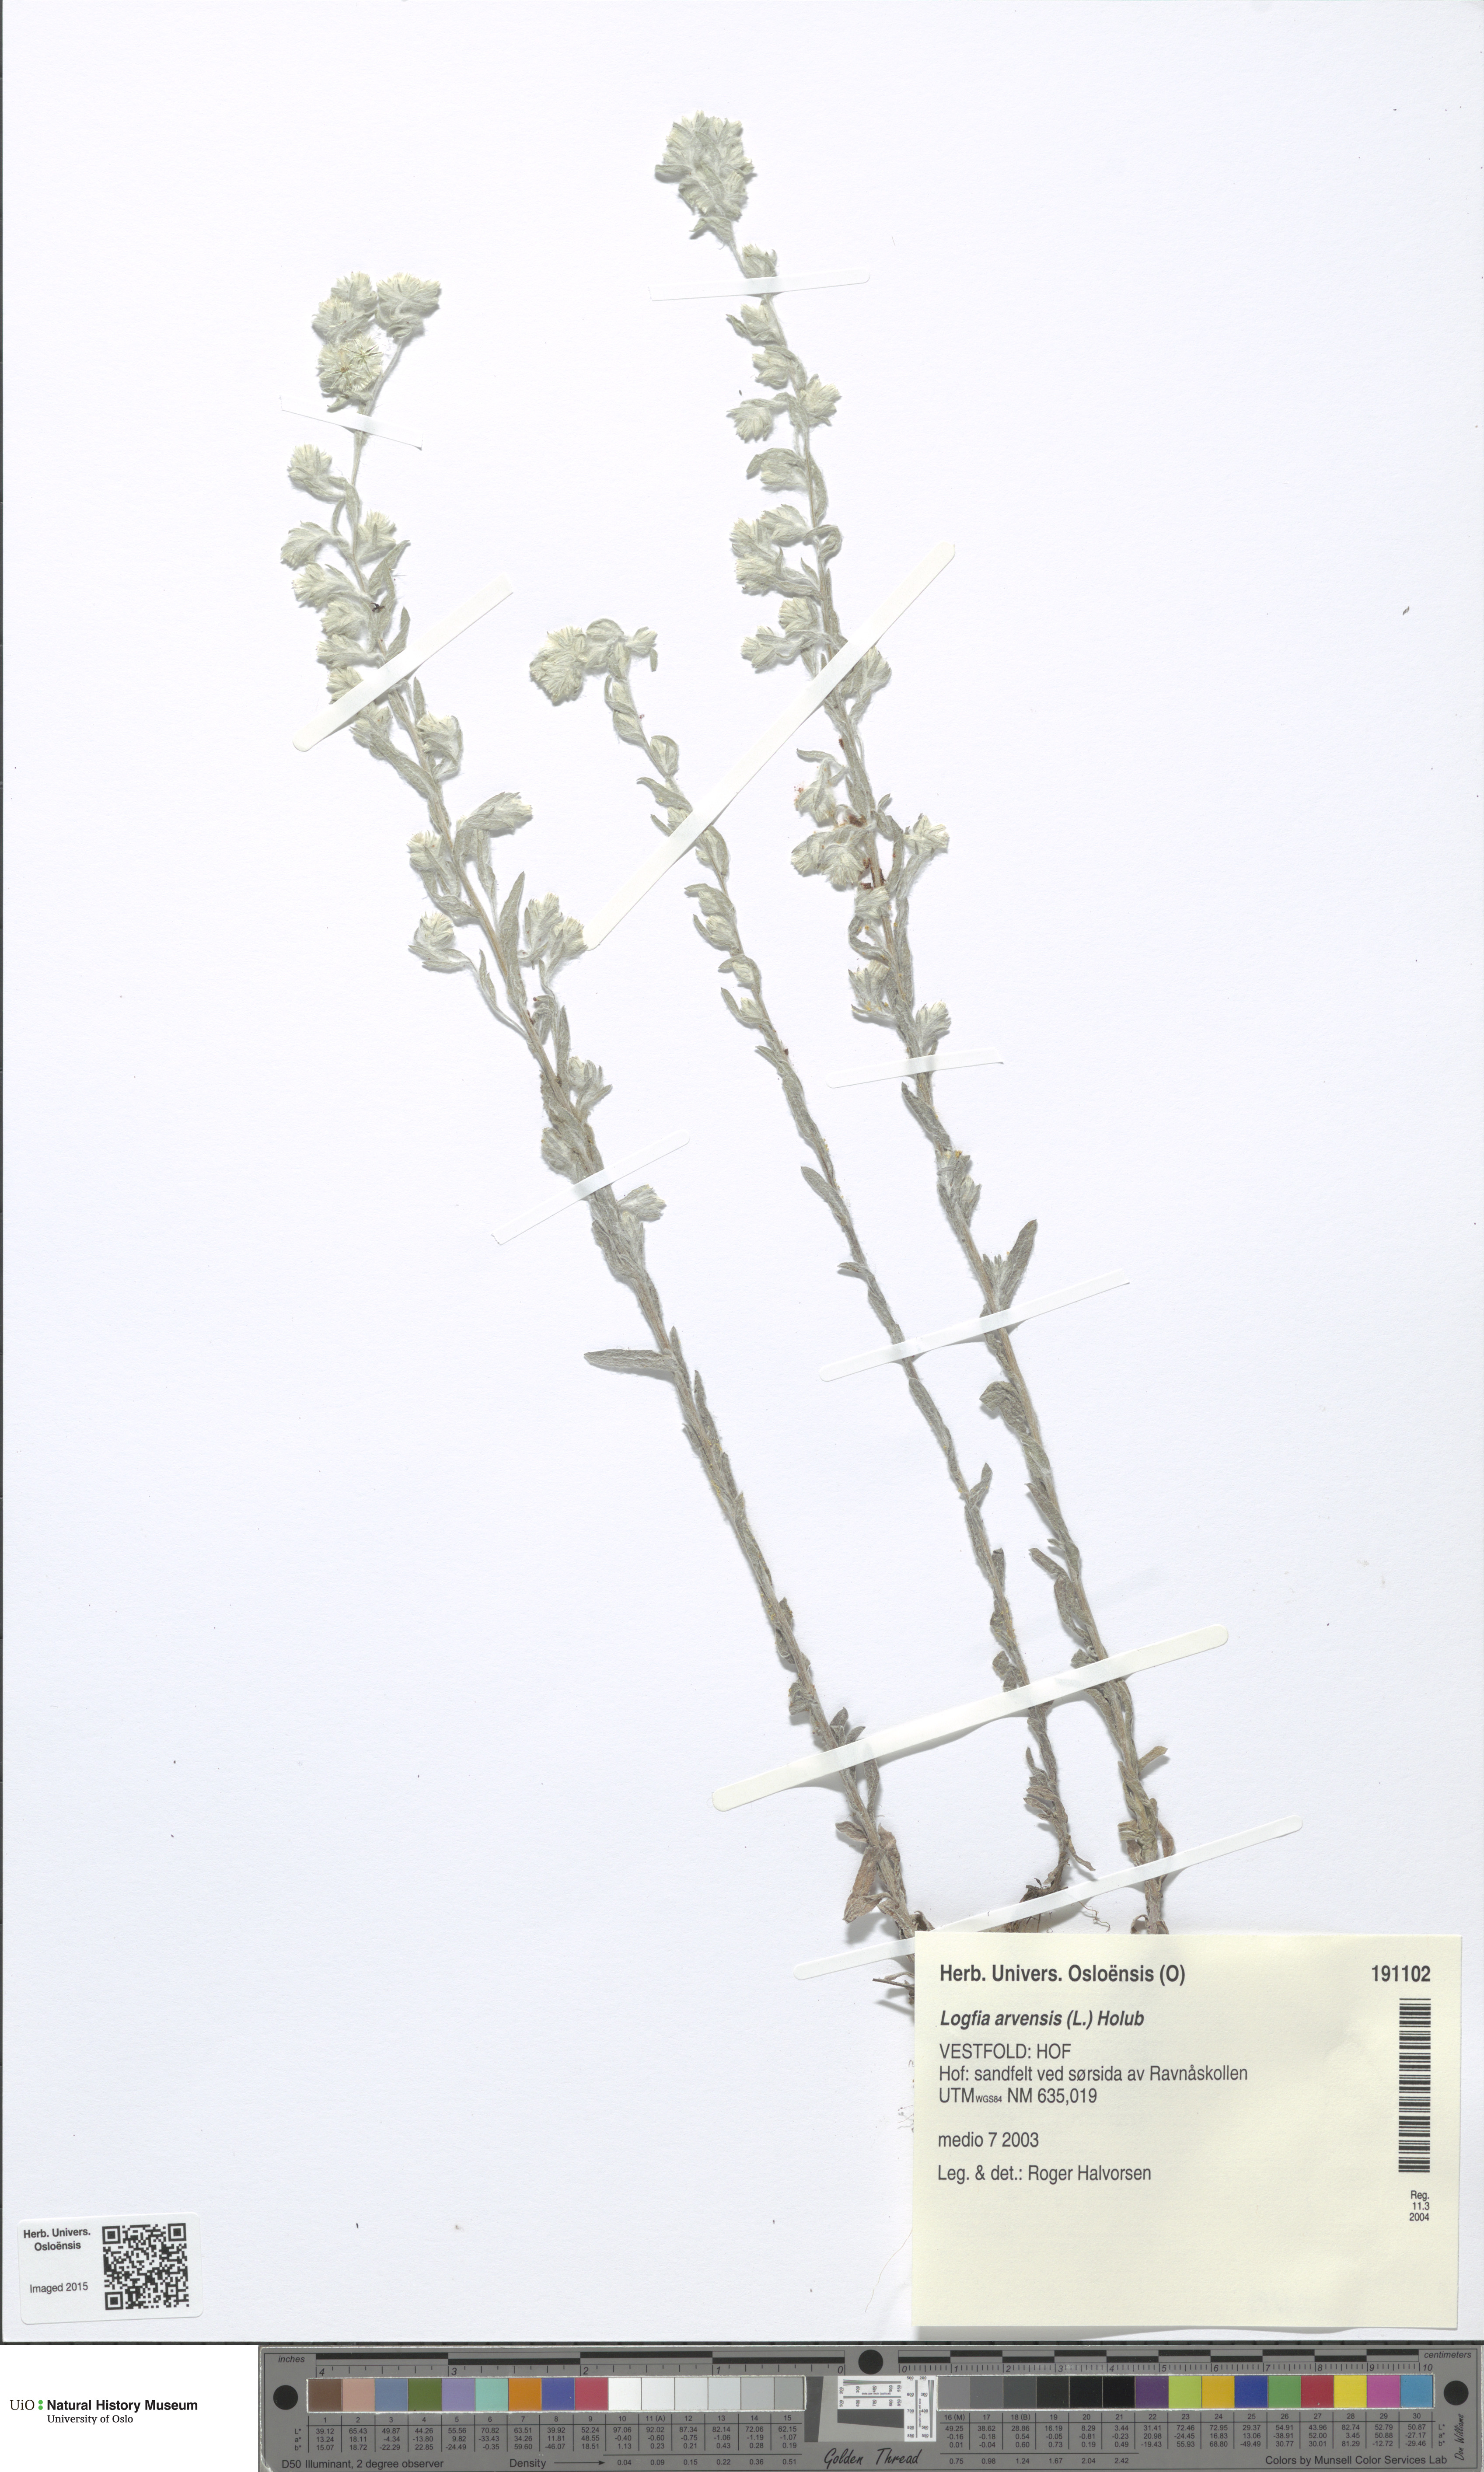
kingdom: Plantae
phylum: Tracheophyta
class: Magnoliopsida
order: Asterales
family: Asteraceae
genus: Filago
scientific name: Filago arvensis
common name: Field cudweed
